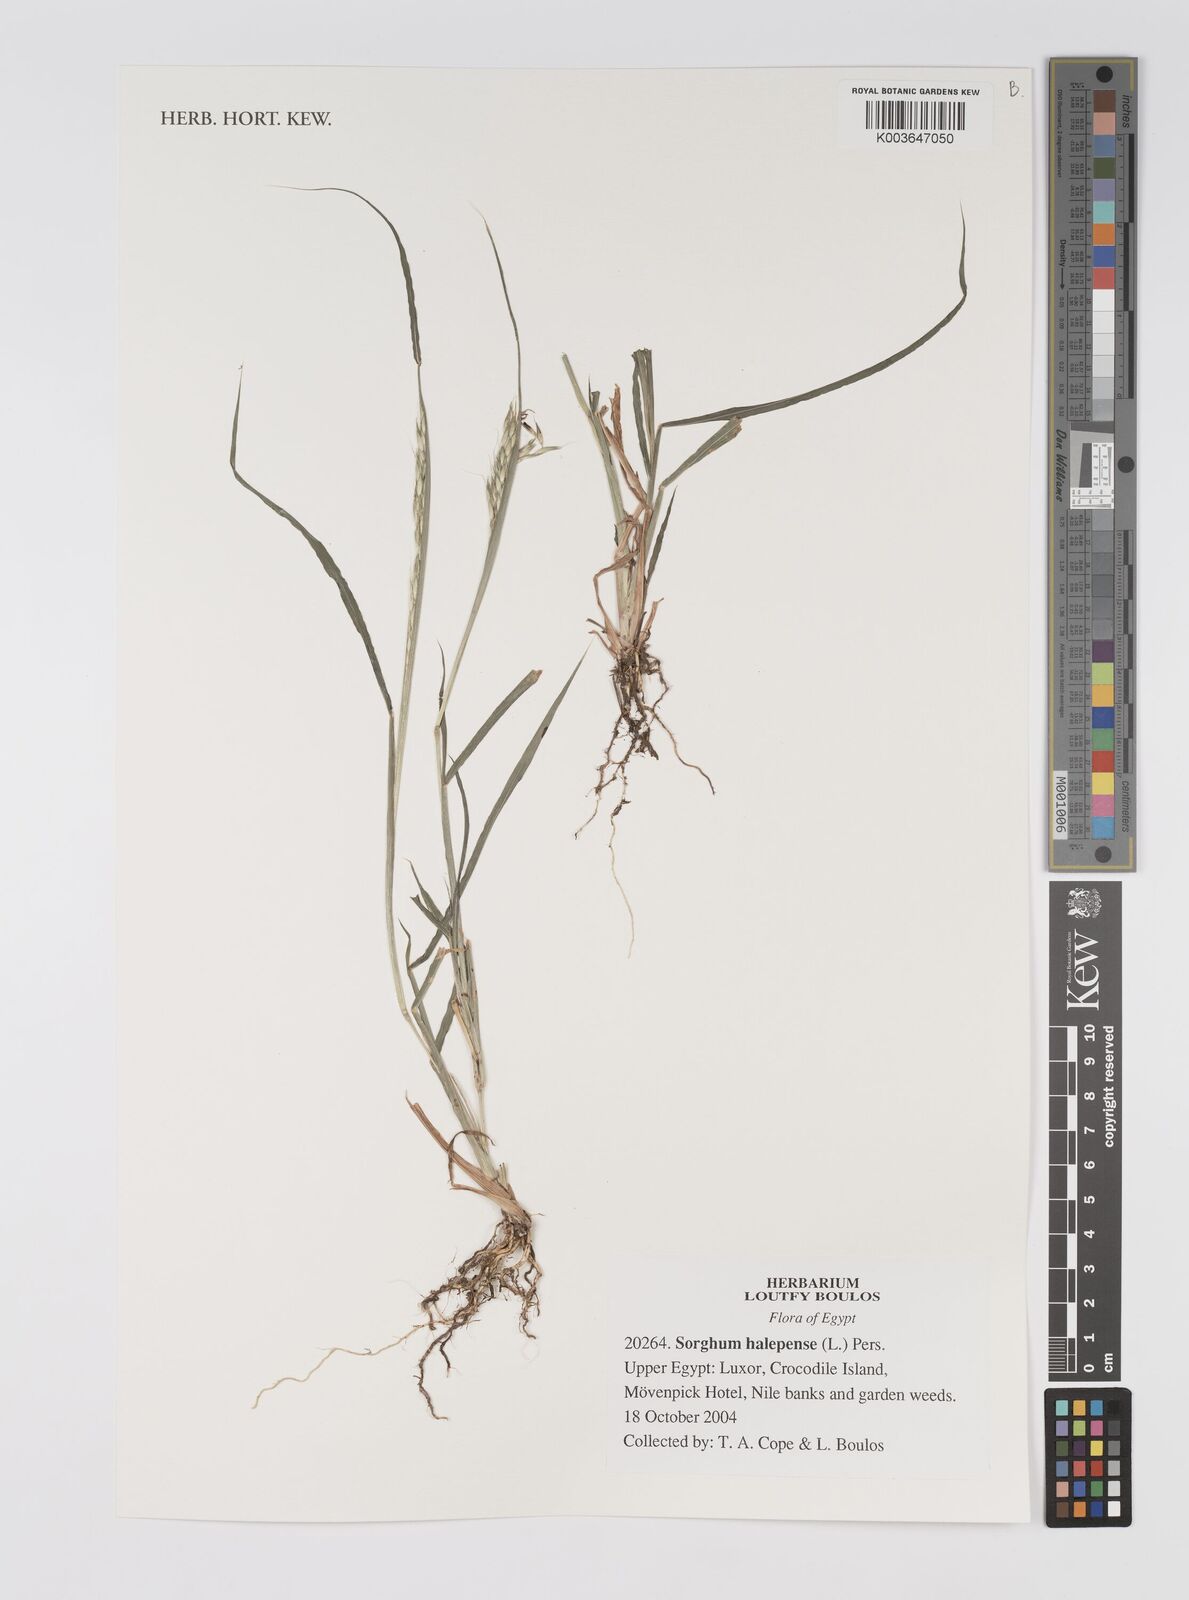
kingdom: Plantae
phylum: Tracheophyta
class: Liliopsida
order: Poales
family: Poaceae
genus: Sorghum
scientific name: Sorghum halepense
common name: Johnson-grass
